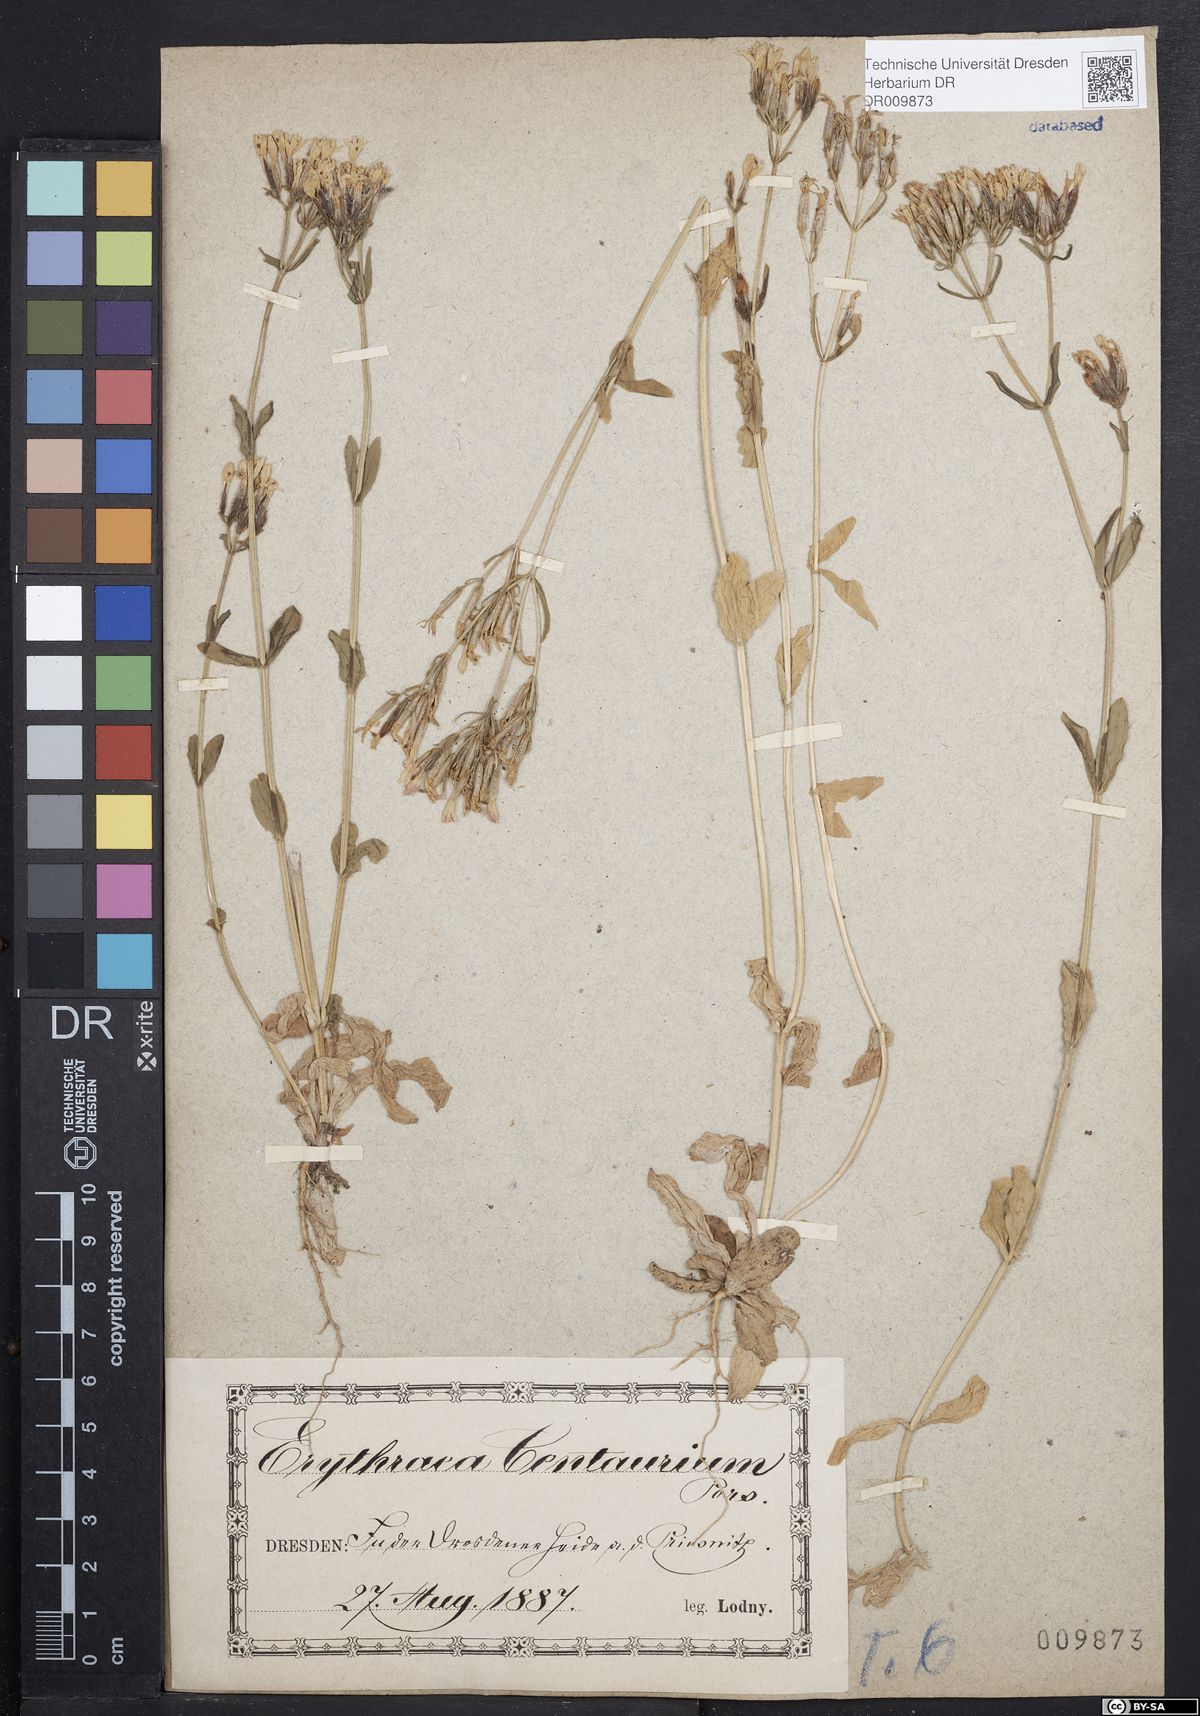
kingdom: Plantae
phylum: Tracheophyta
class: Magnoliopsida
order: Gentianales
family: Gentianaceae
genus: Centaurium
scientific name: Centaurium erythraea
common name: Common centaury
